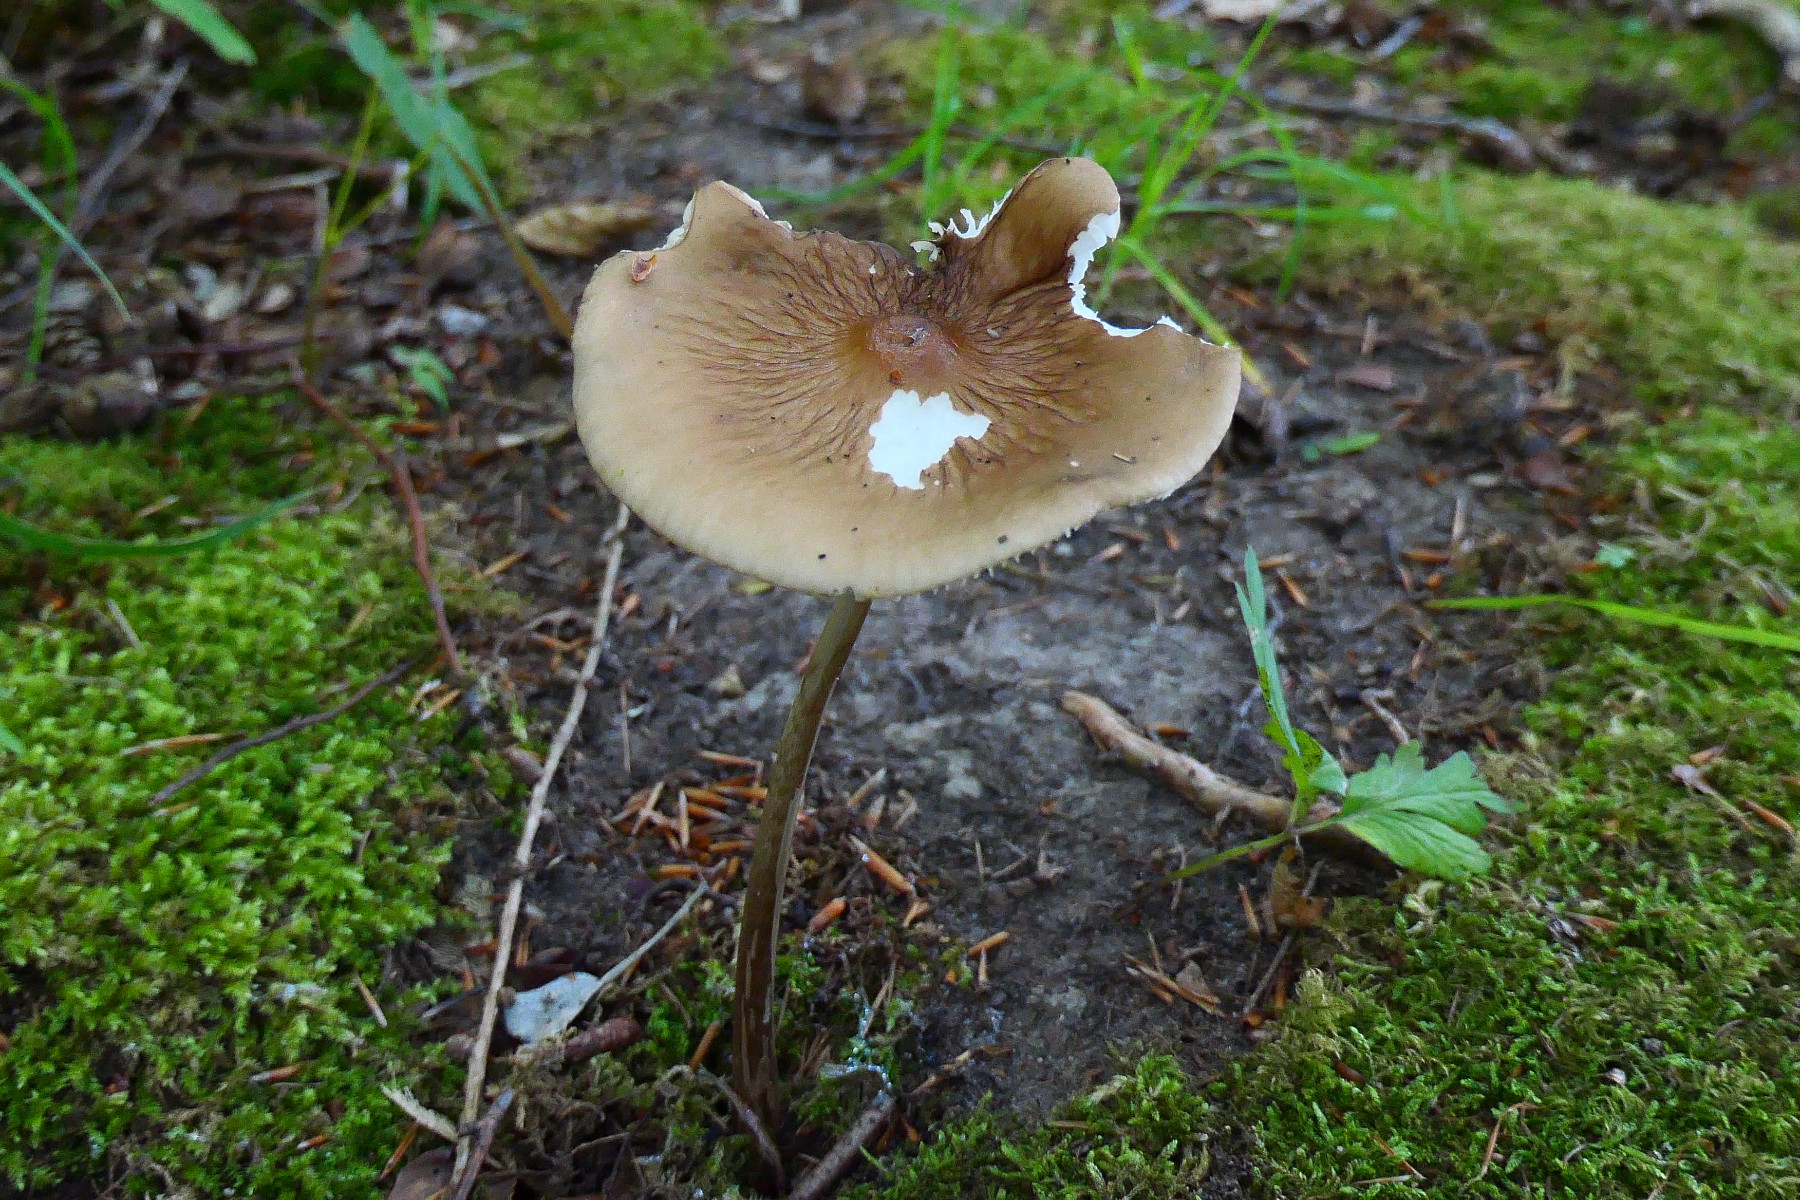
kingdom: Fungi
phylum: Basidiomycota
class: Agaricomycetes
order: Agaricales
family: Physalacriaceae
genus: Hymenopellis
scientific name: Hymenopellis radicata
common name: almindelig pælerodshat
